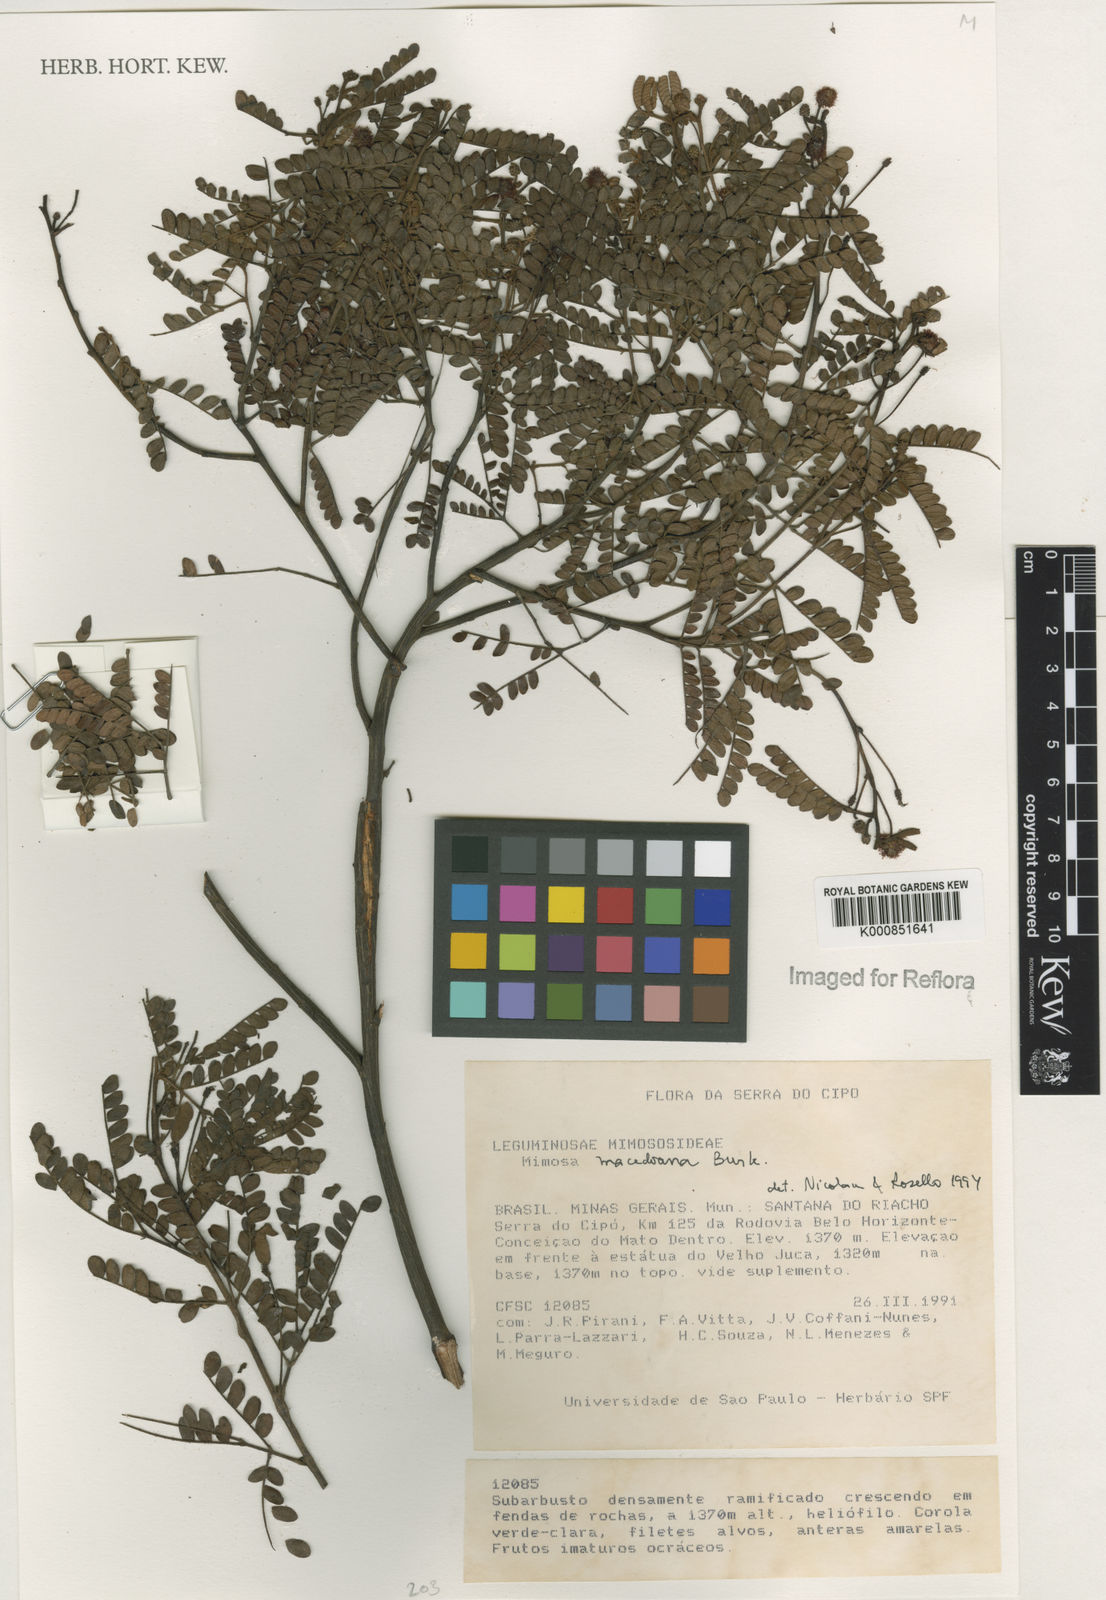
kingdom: Plantae
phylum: Tracheophyta
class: Magnoliopsida
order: Fabales
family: Fabaceae
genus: Mimosa
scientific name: Mimosa macedoana
